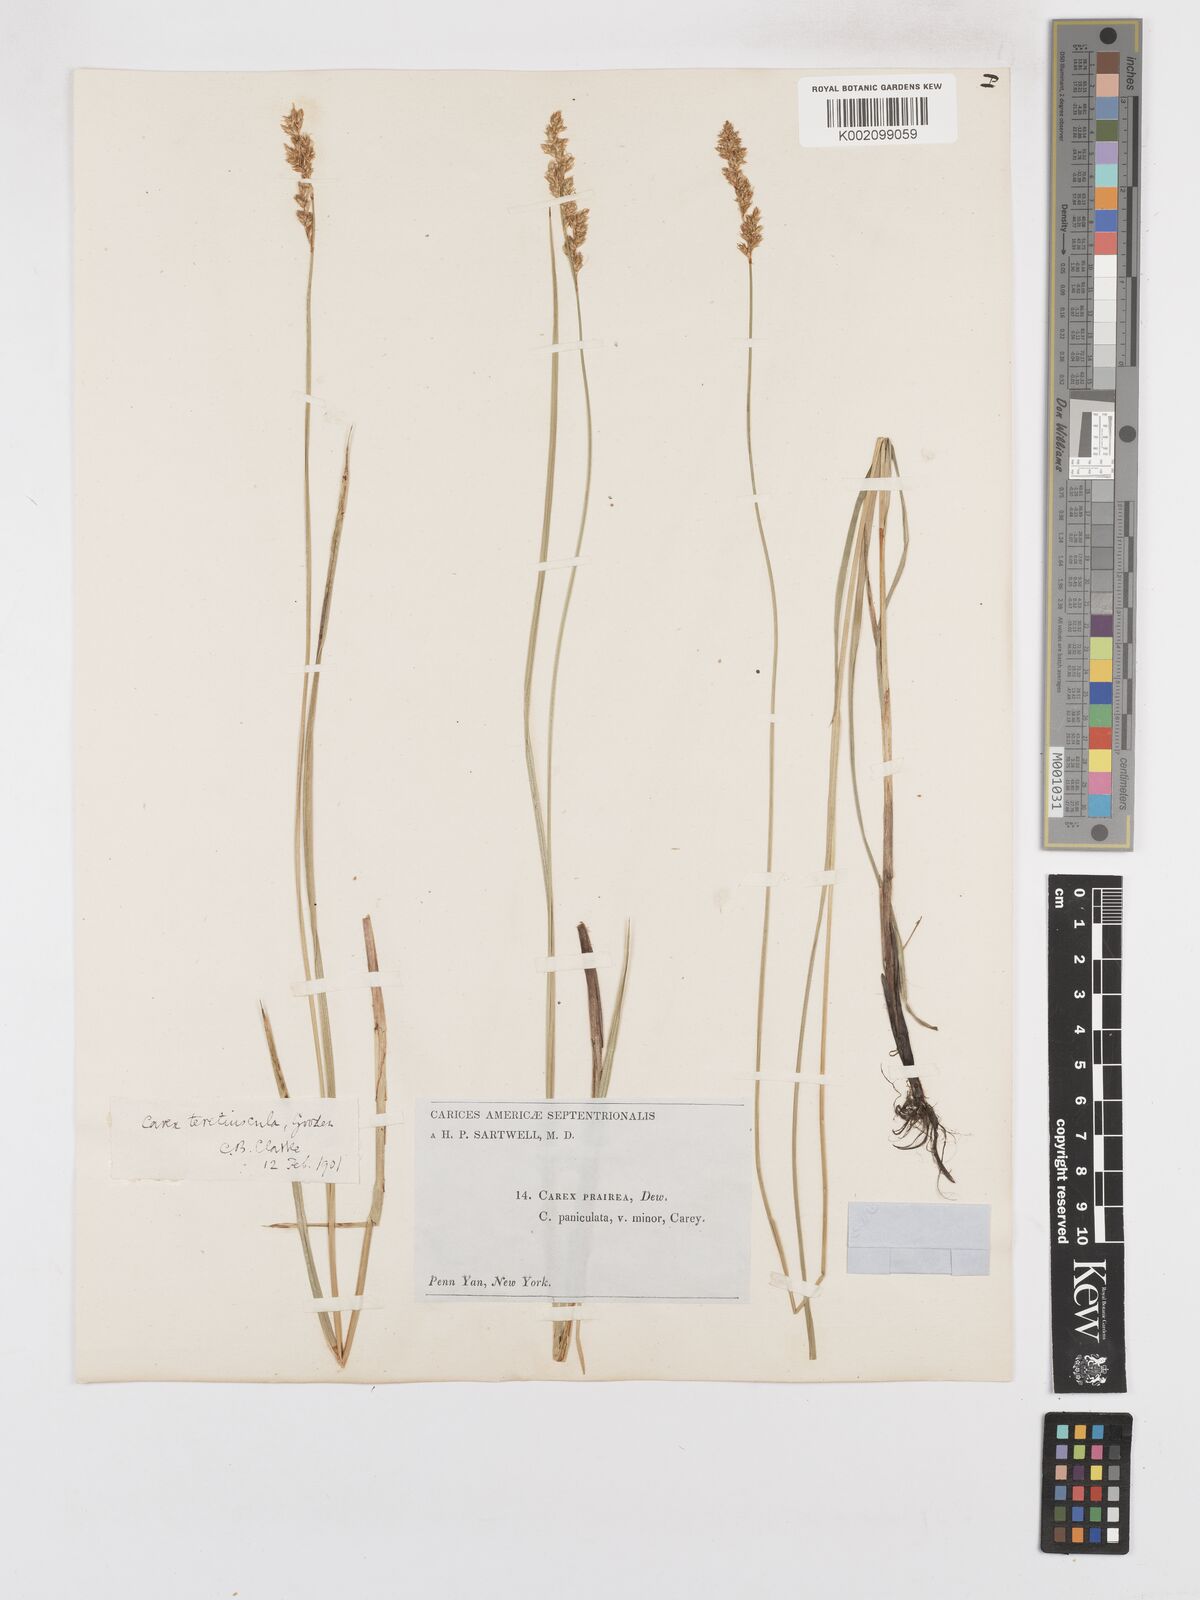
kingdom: Plantae
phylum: Tracheophyta
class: Liliopsida
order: Poales
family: Cyperaceae
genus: Carex
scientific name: Carex diandra
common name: Lesser tussock-sedge
